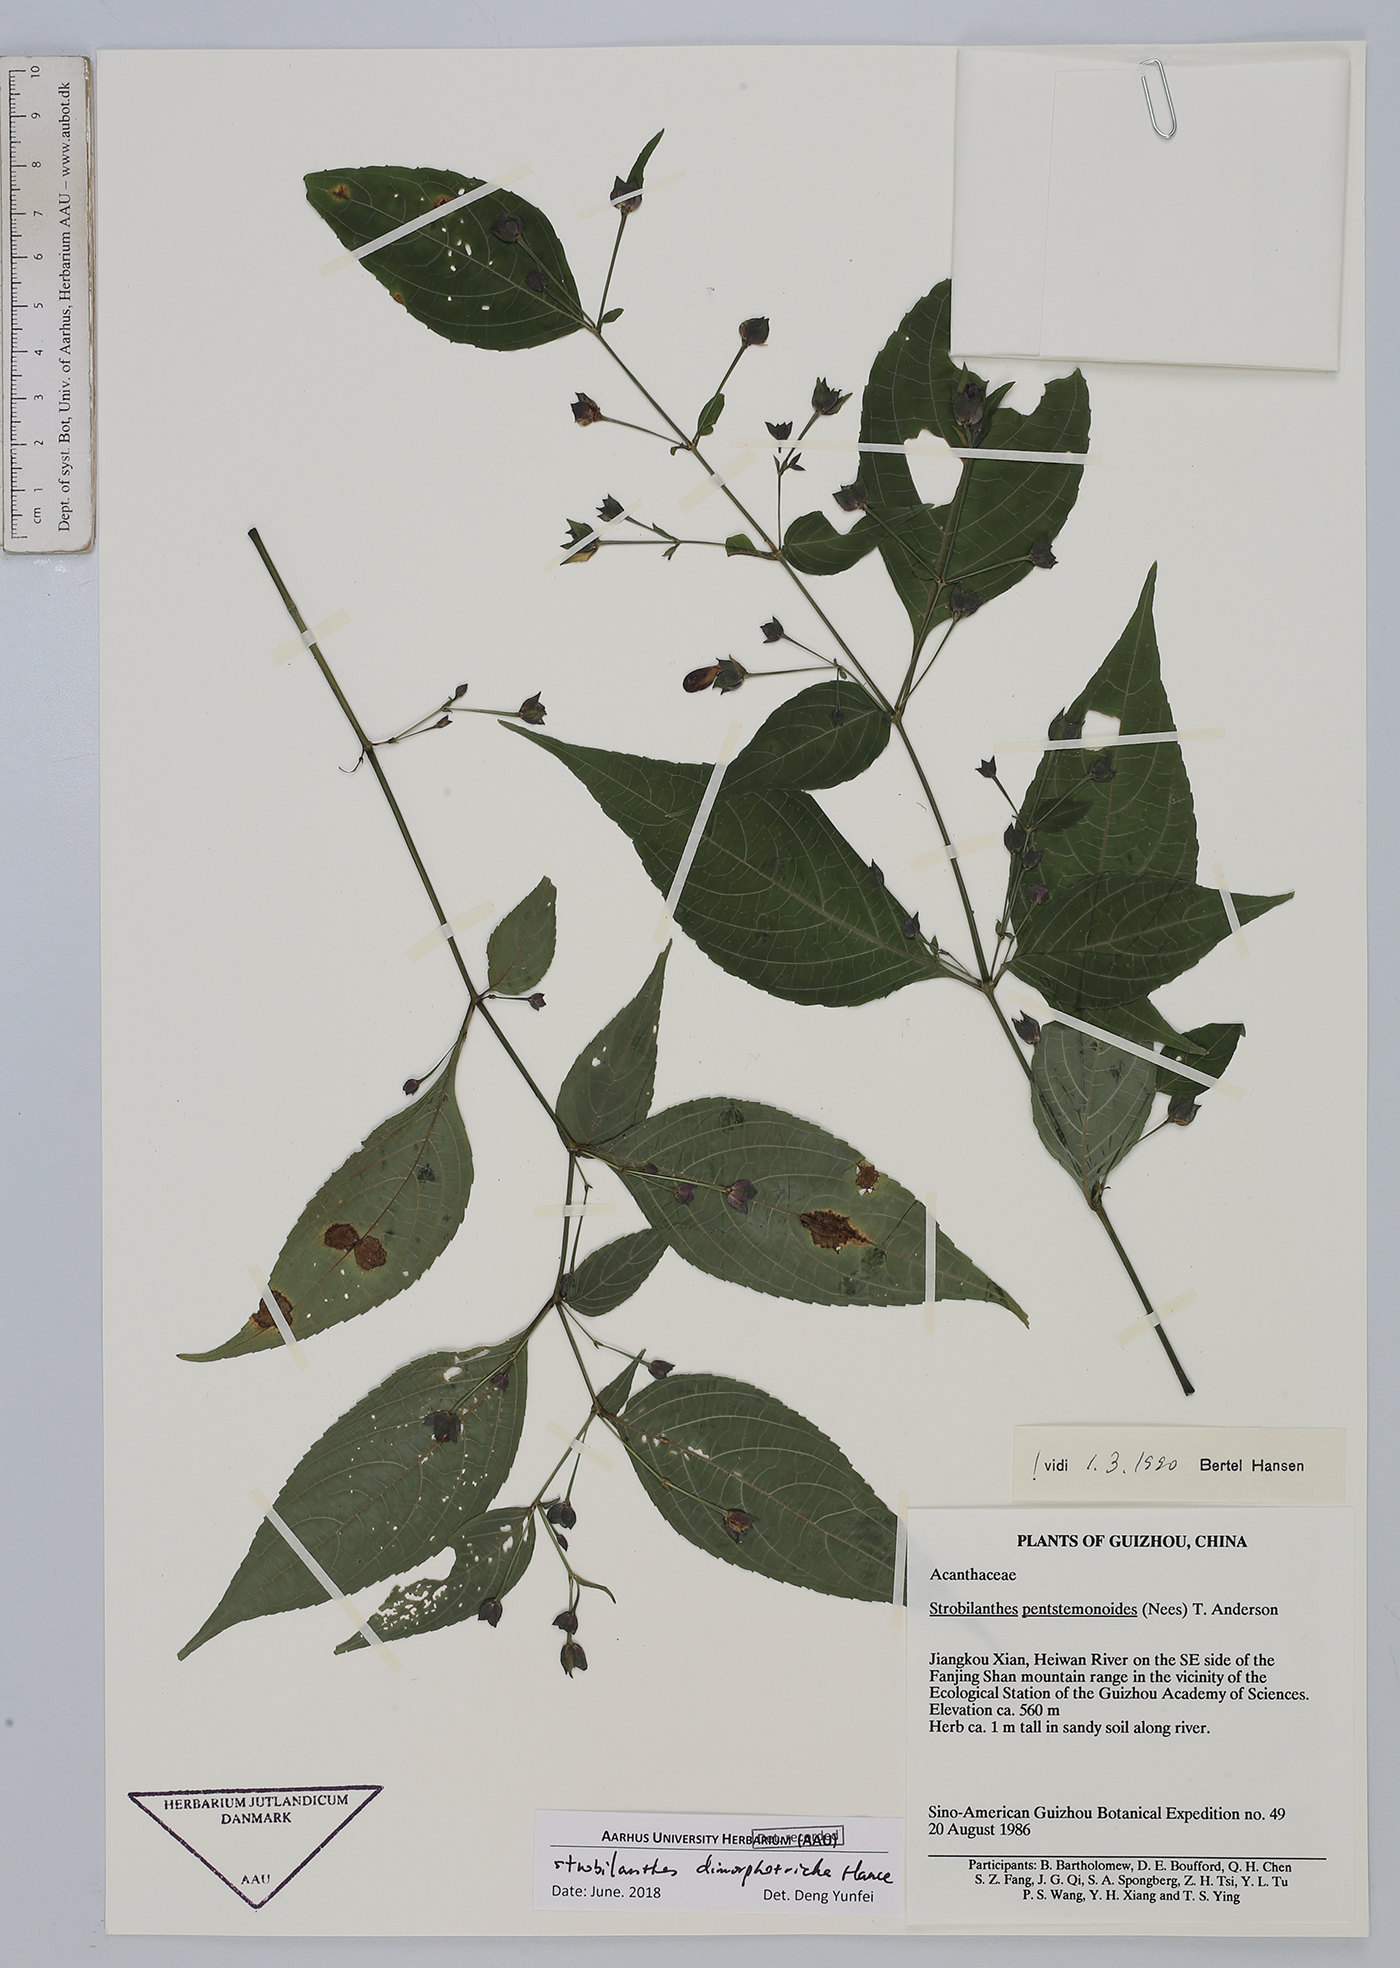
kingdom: Plantae
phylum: Tracheophyta
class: Magnoliopsida
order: Lamiales
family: Acanthaceae
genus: Strobilanthes
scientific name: Strobilanthes dimorphotricha
